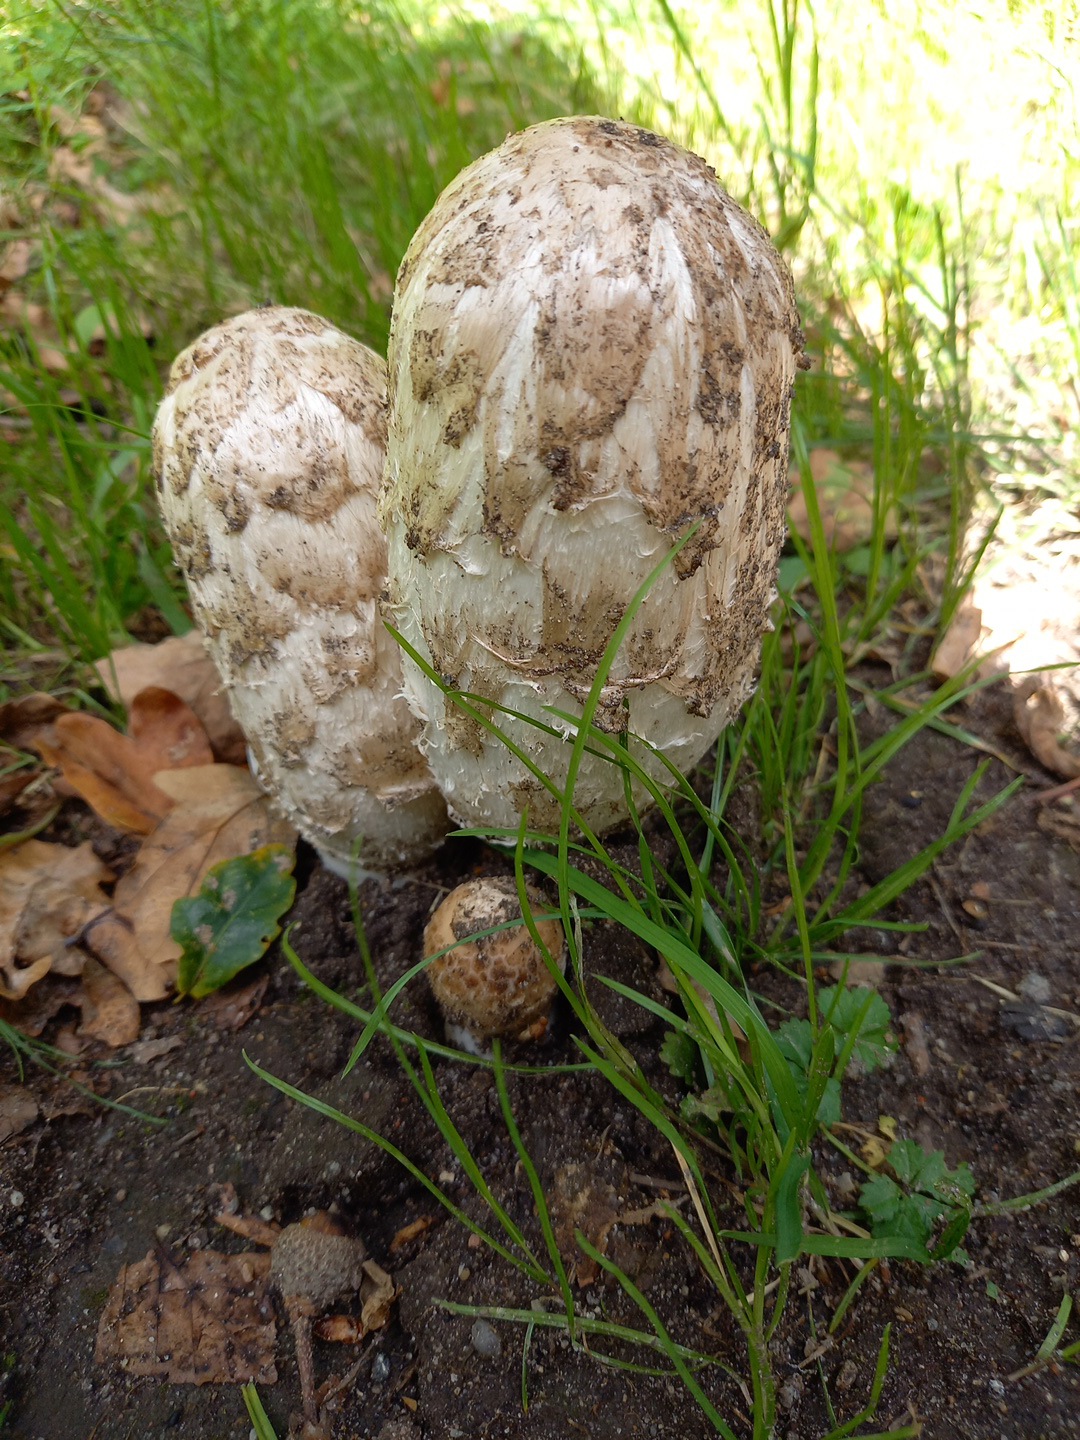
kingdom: Fungi
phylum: Basidiomycota
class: Agaricomycetes
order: Agaricales
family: Agaricaceae
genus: Coprinus
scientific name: Coprinus comatus
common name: stor parykhat
